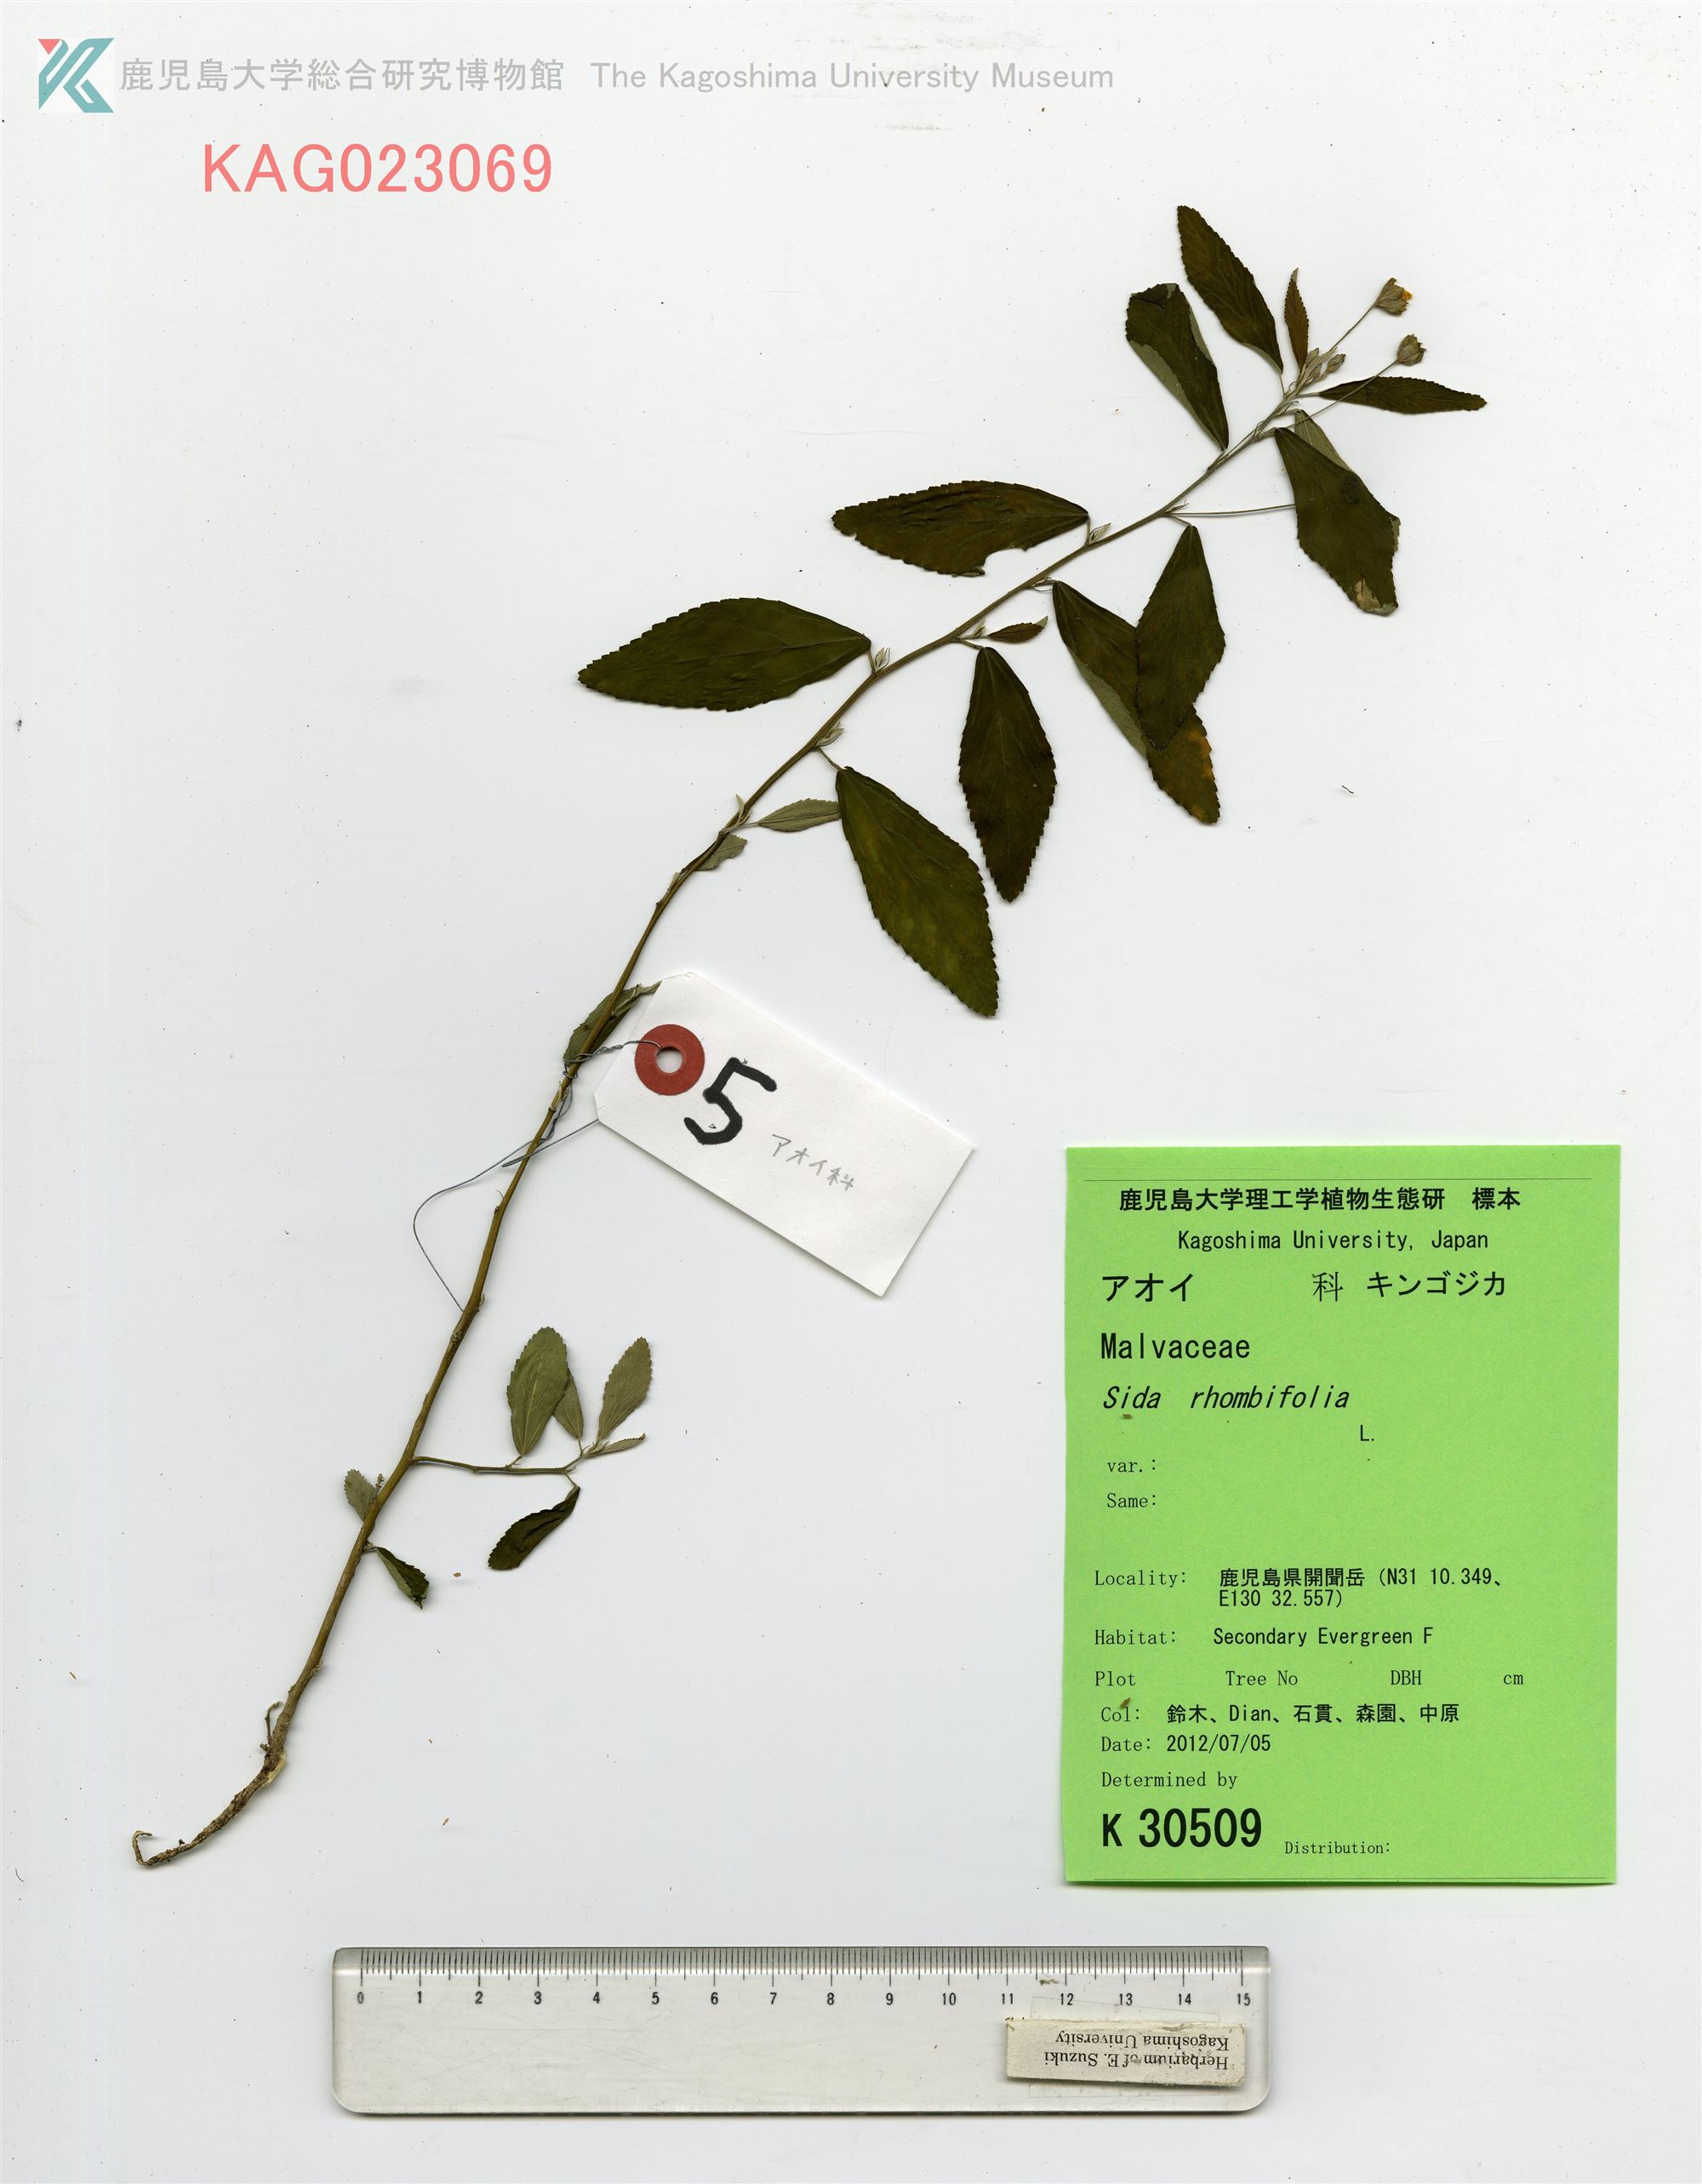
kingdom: Plantae
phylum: Tracheophyta
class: Magnoliopsida
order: Malvales
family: Malvaceae
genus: Sida
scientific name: Sida rhombifolia
